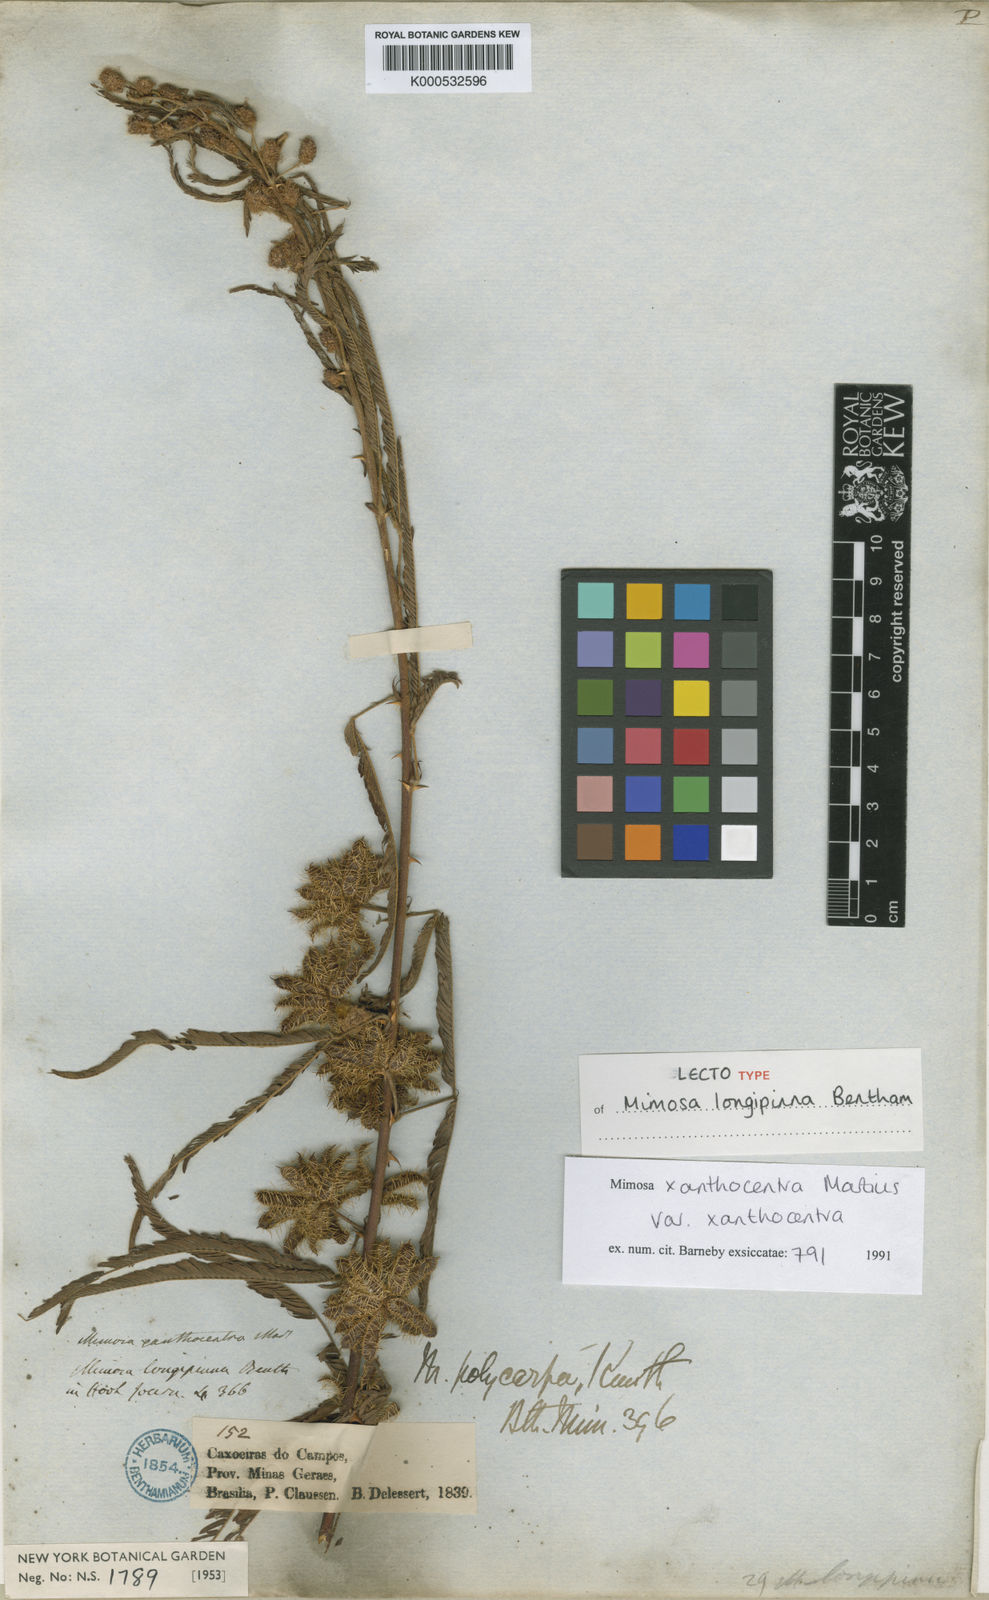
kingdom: Plantae
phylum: Tracheophyta
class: Magnoliopsida
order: Fabales
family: Fabaceae
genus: Mimosa
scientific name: Mimosa xanthocentra
